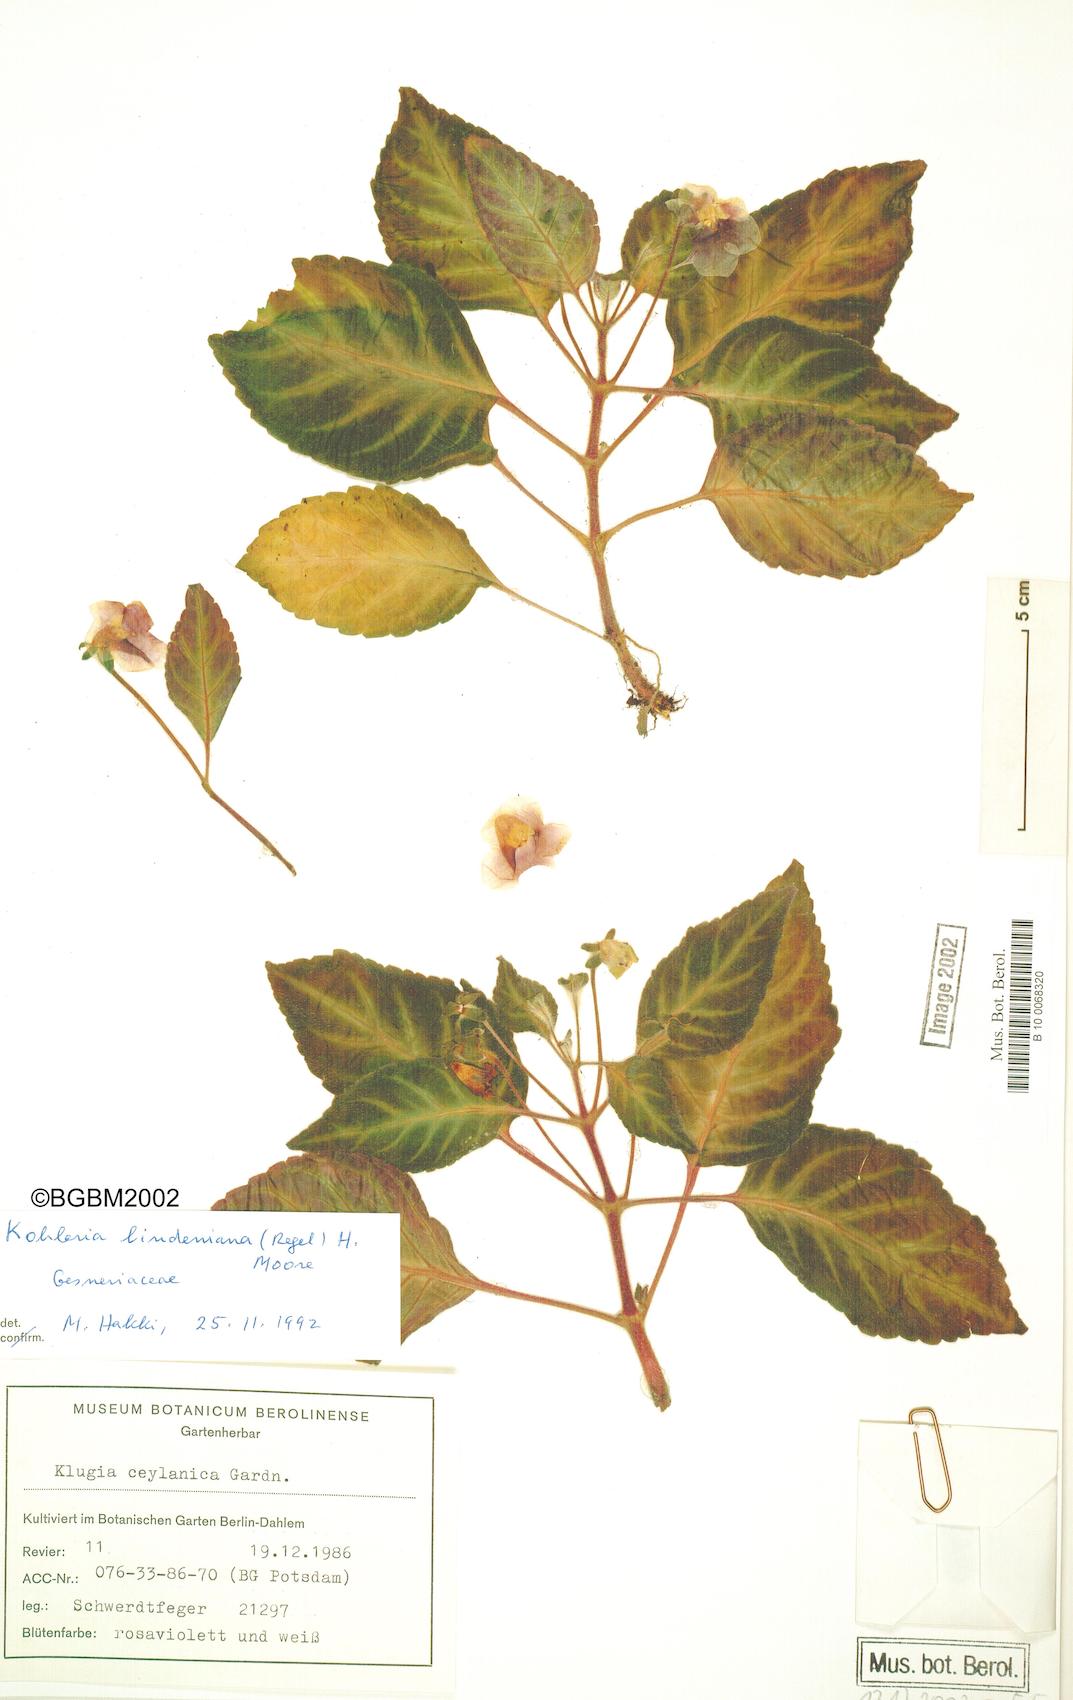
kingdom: Plantae
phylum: Tracheophyta
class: Magnoliopsida
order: Lamiales
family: Gesneriaceae
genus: Gloxinella
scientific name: Gloxinella lindeniana
